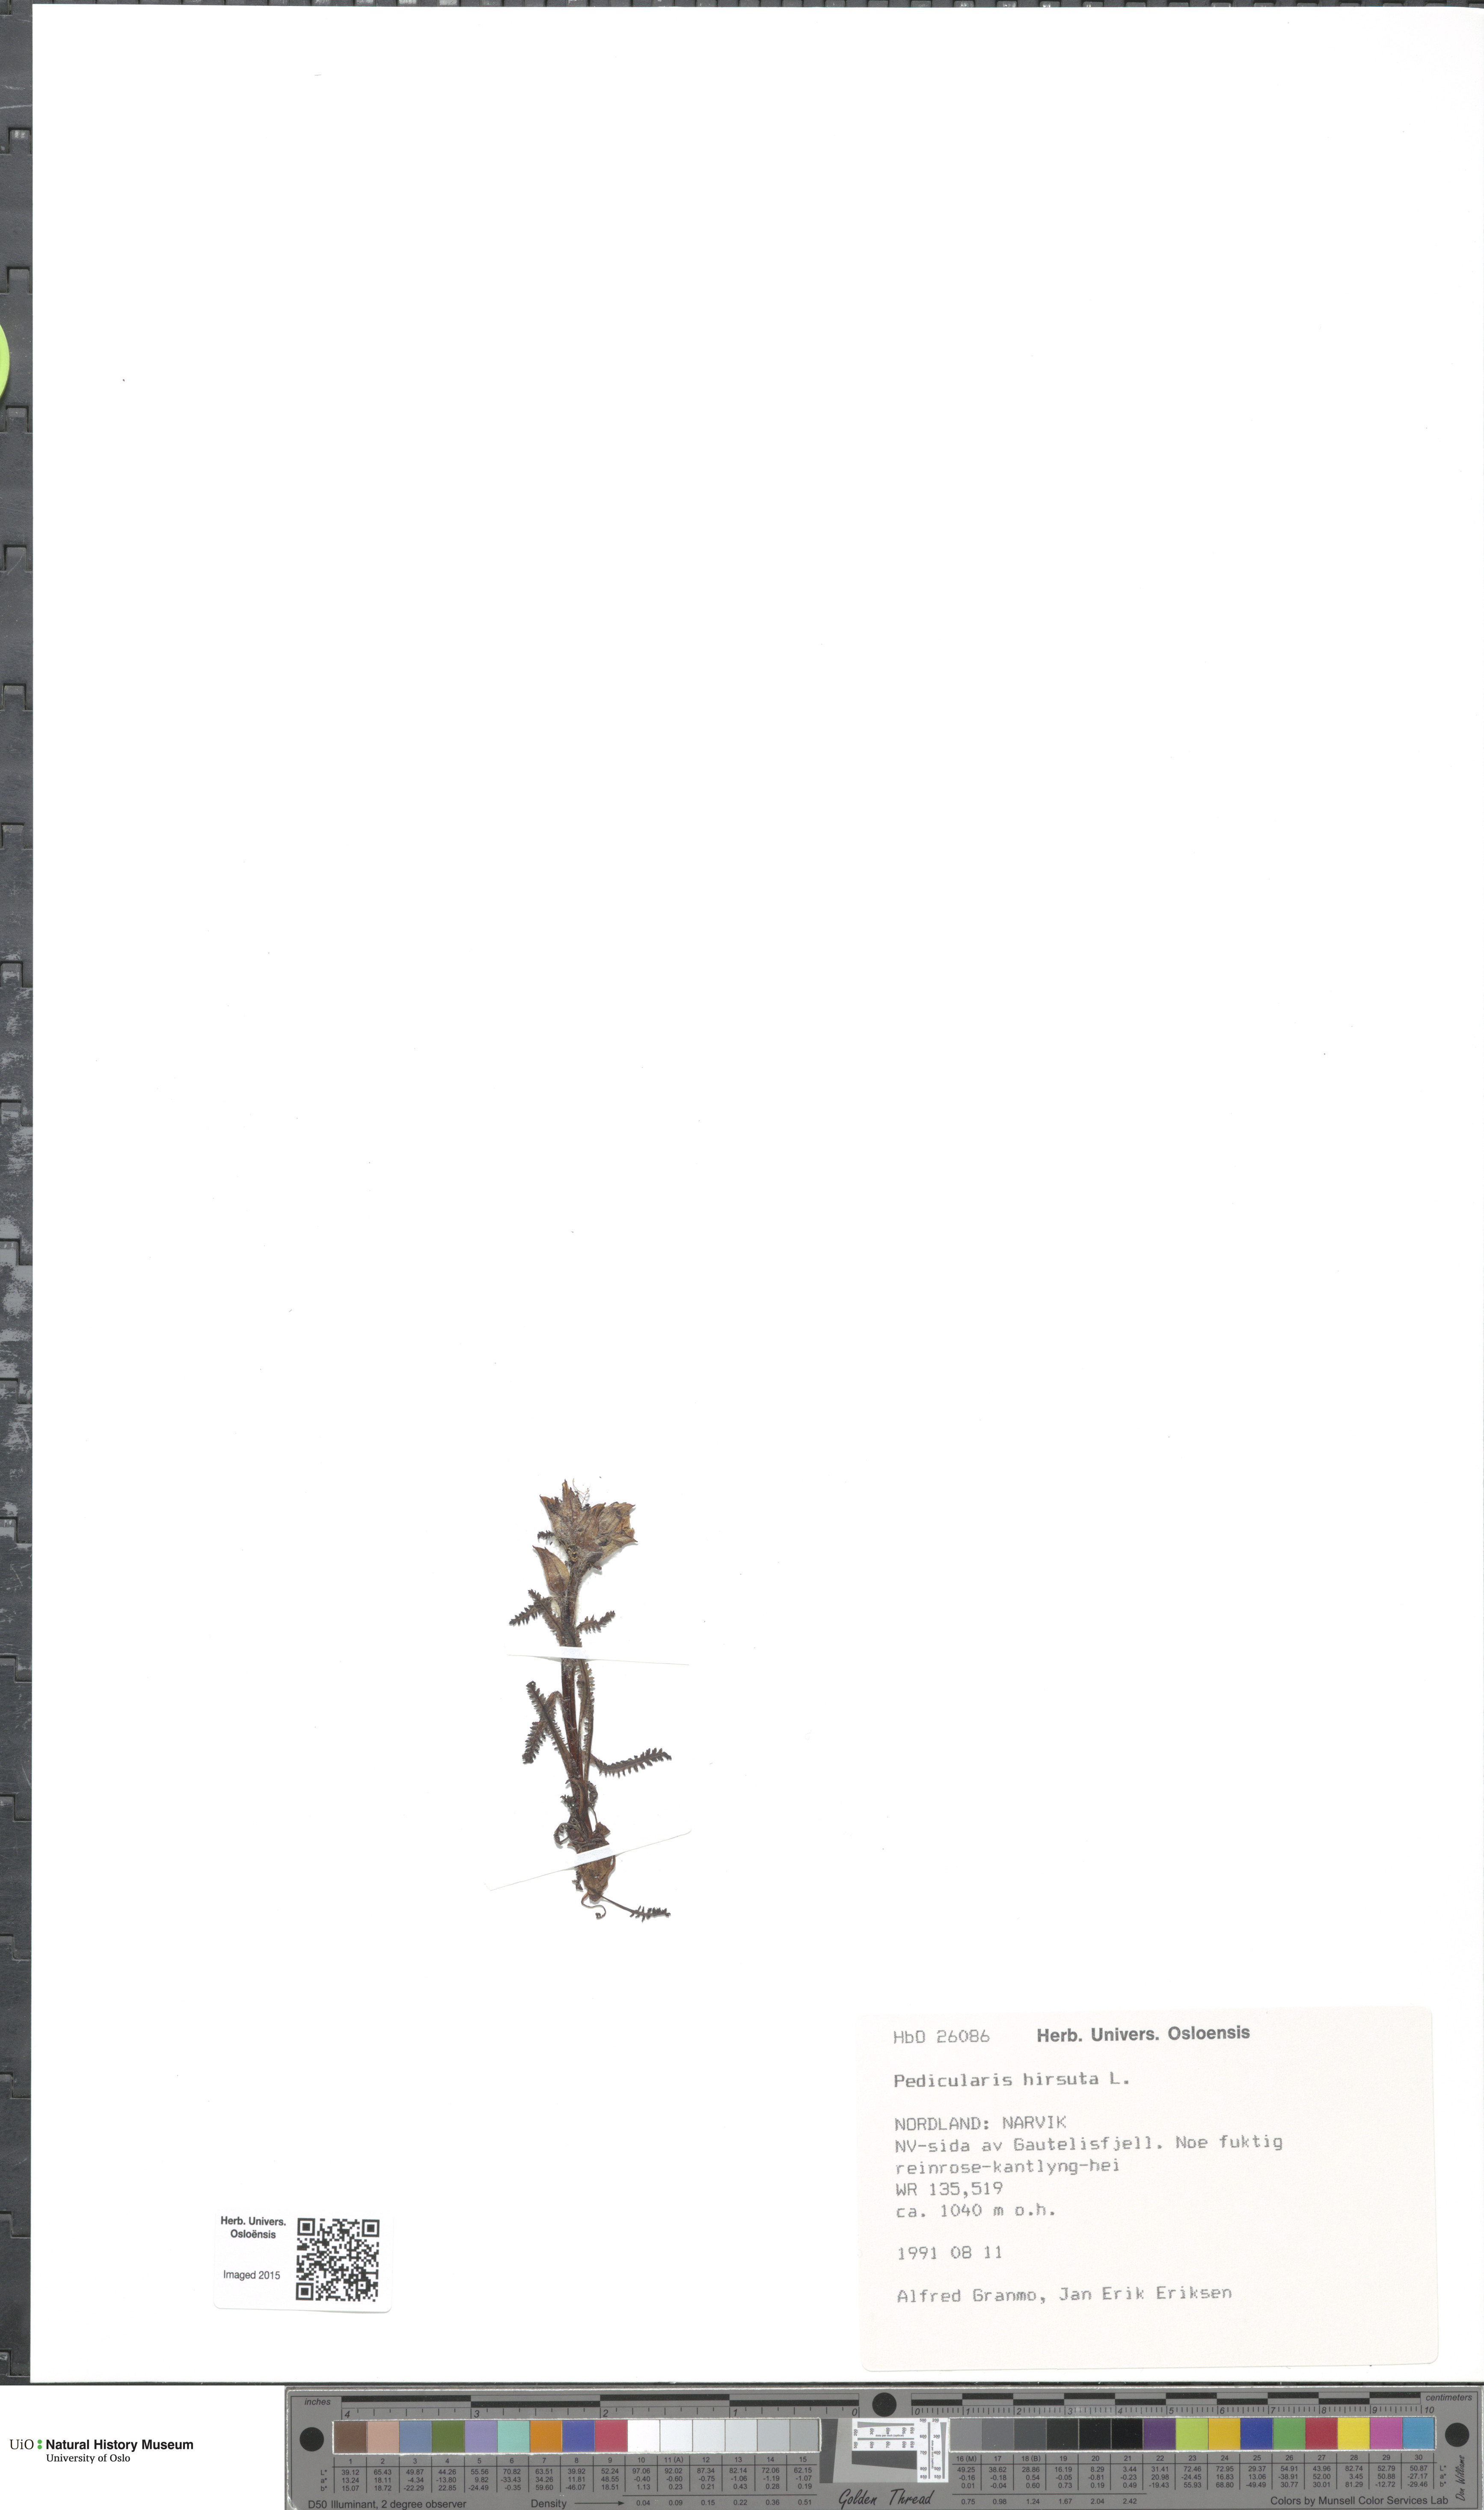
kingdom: Plantae
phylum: Tracheophyta
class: Magnoliopsida
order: Lamiales
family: Orobanchaceae
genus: Pedicularis
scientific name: Pedicularis hirsuta
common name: Hairy lousewort
